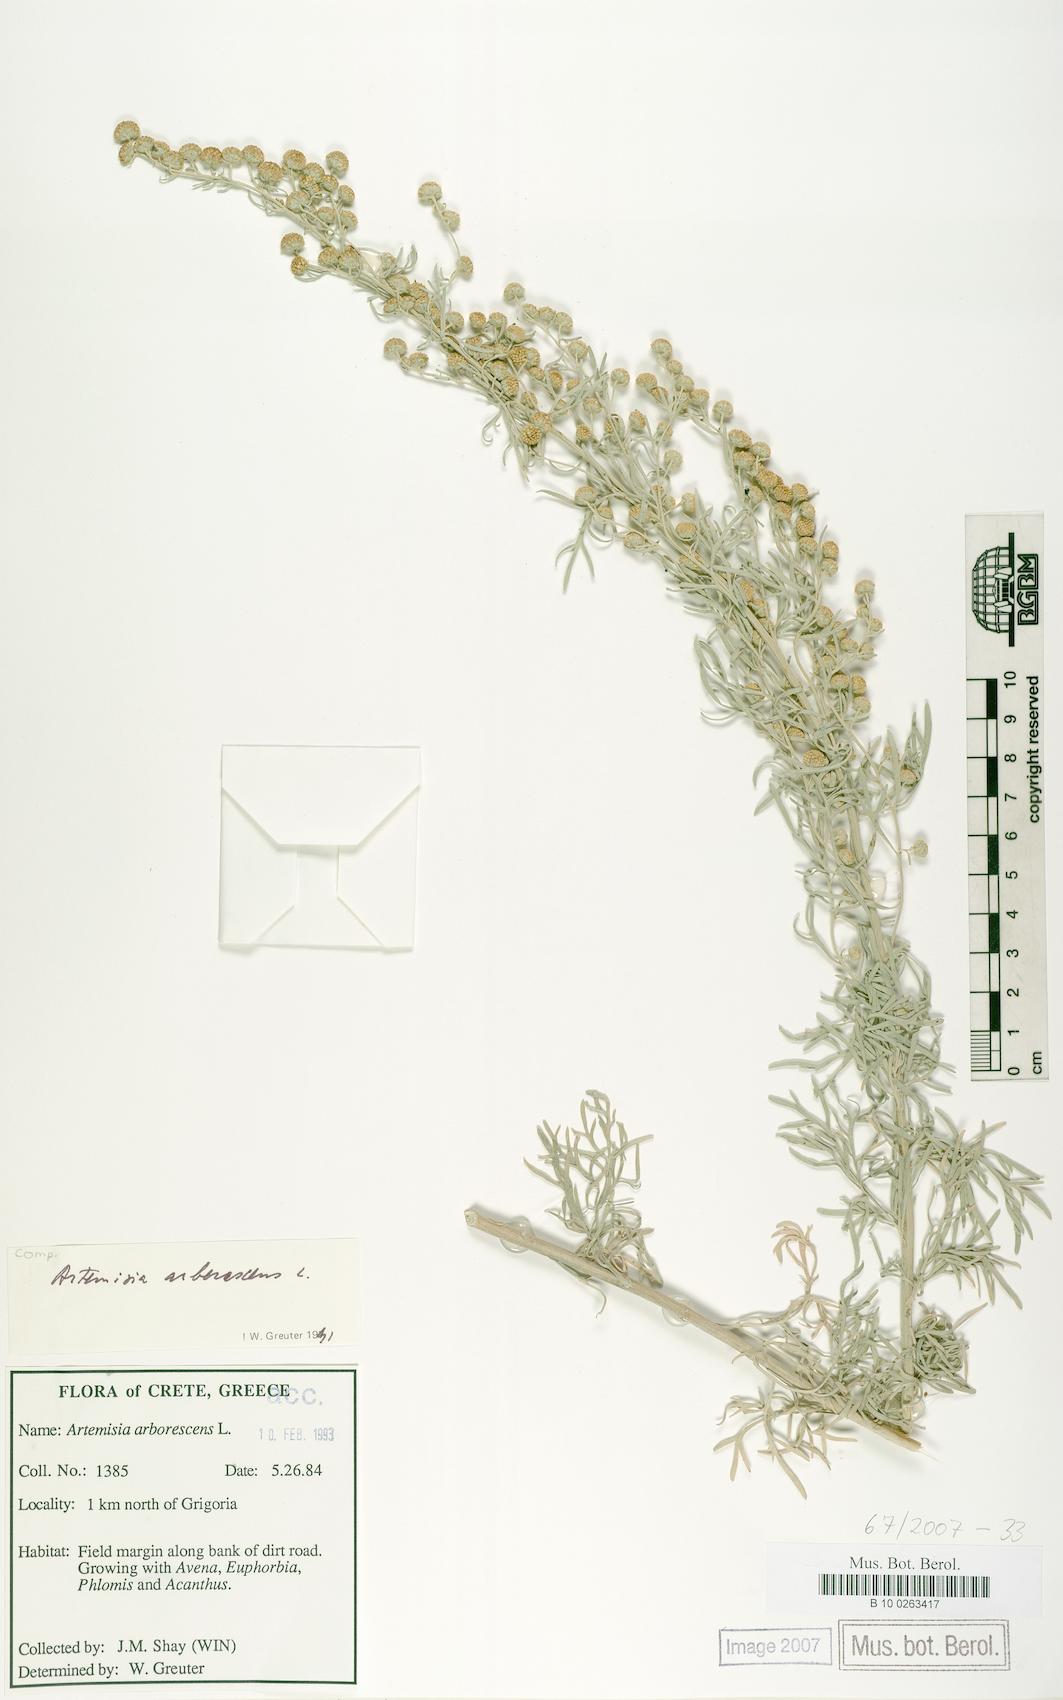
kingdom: Plantae
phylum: Tracheophyta
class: Magnoliopsida
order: Asterales
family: Asteraceae
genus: Artemisia
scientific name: Artemisia arborescens
